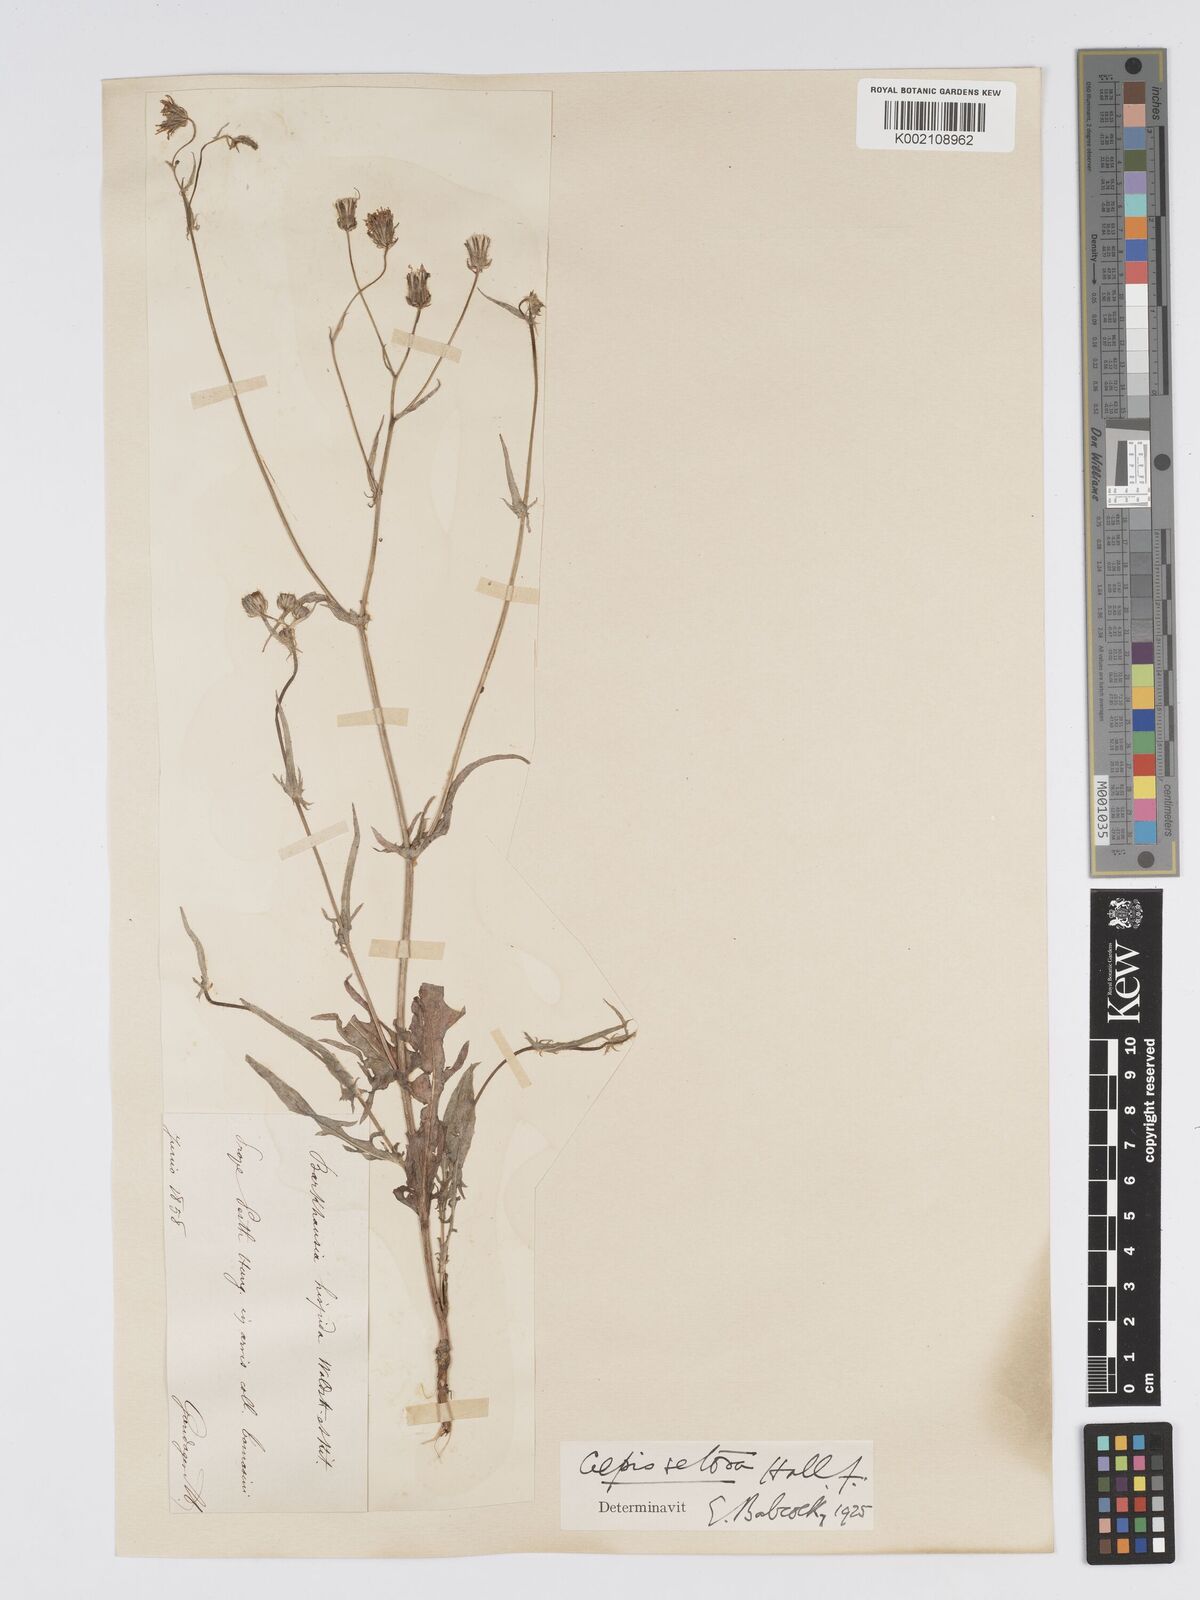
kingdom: Plantae
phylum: Tracheophyta
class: Magnoliopsida
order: Asterales
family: Asteraceae
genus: Crepis
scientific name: Crepis setosa
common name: Bristly hawk's-beard
